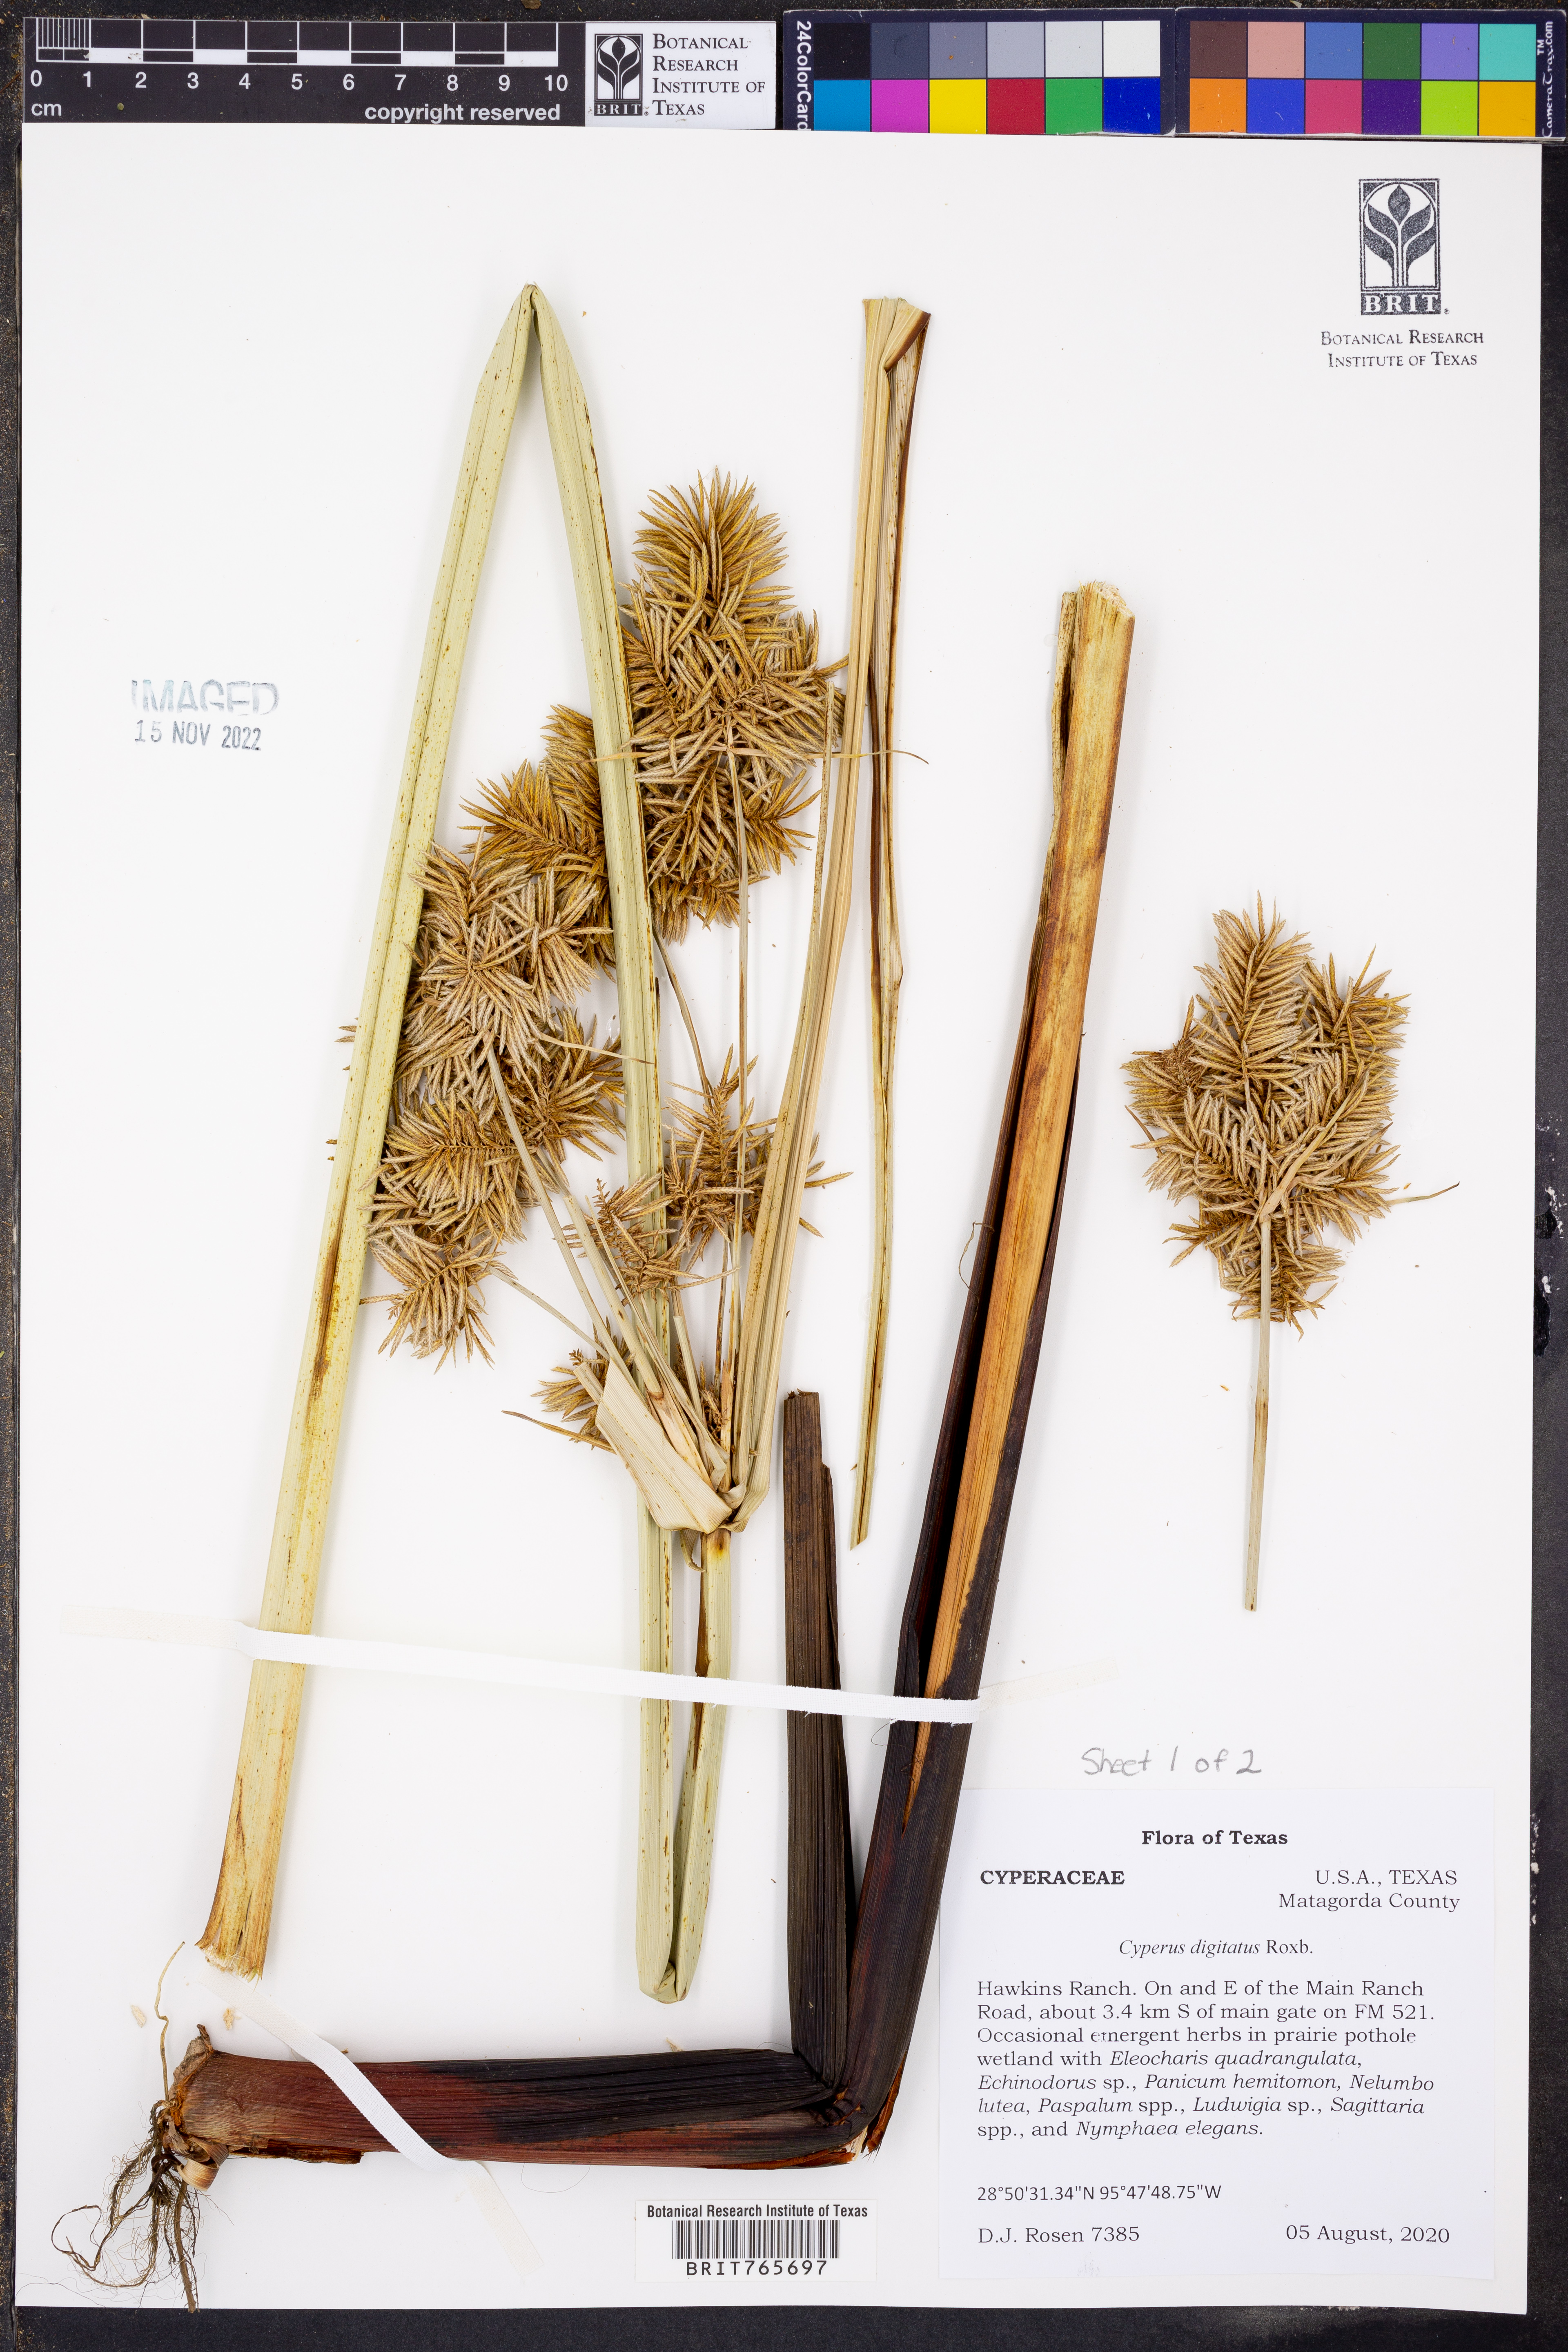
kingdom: Plantae
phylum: Tracheophyta
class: Liliopsida
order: Poales
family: Cyperaceae
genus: Cyperus
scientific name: Cyperus digitatus
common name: Finger flatsedge
